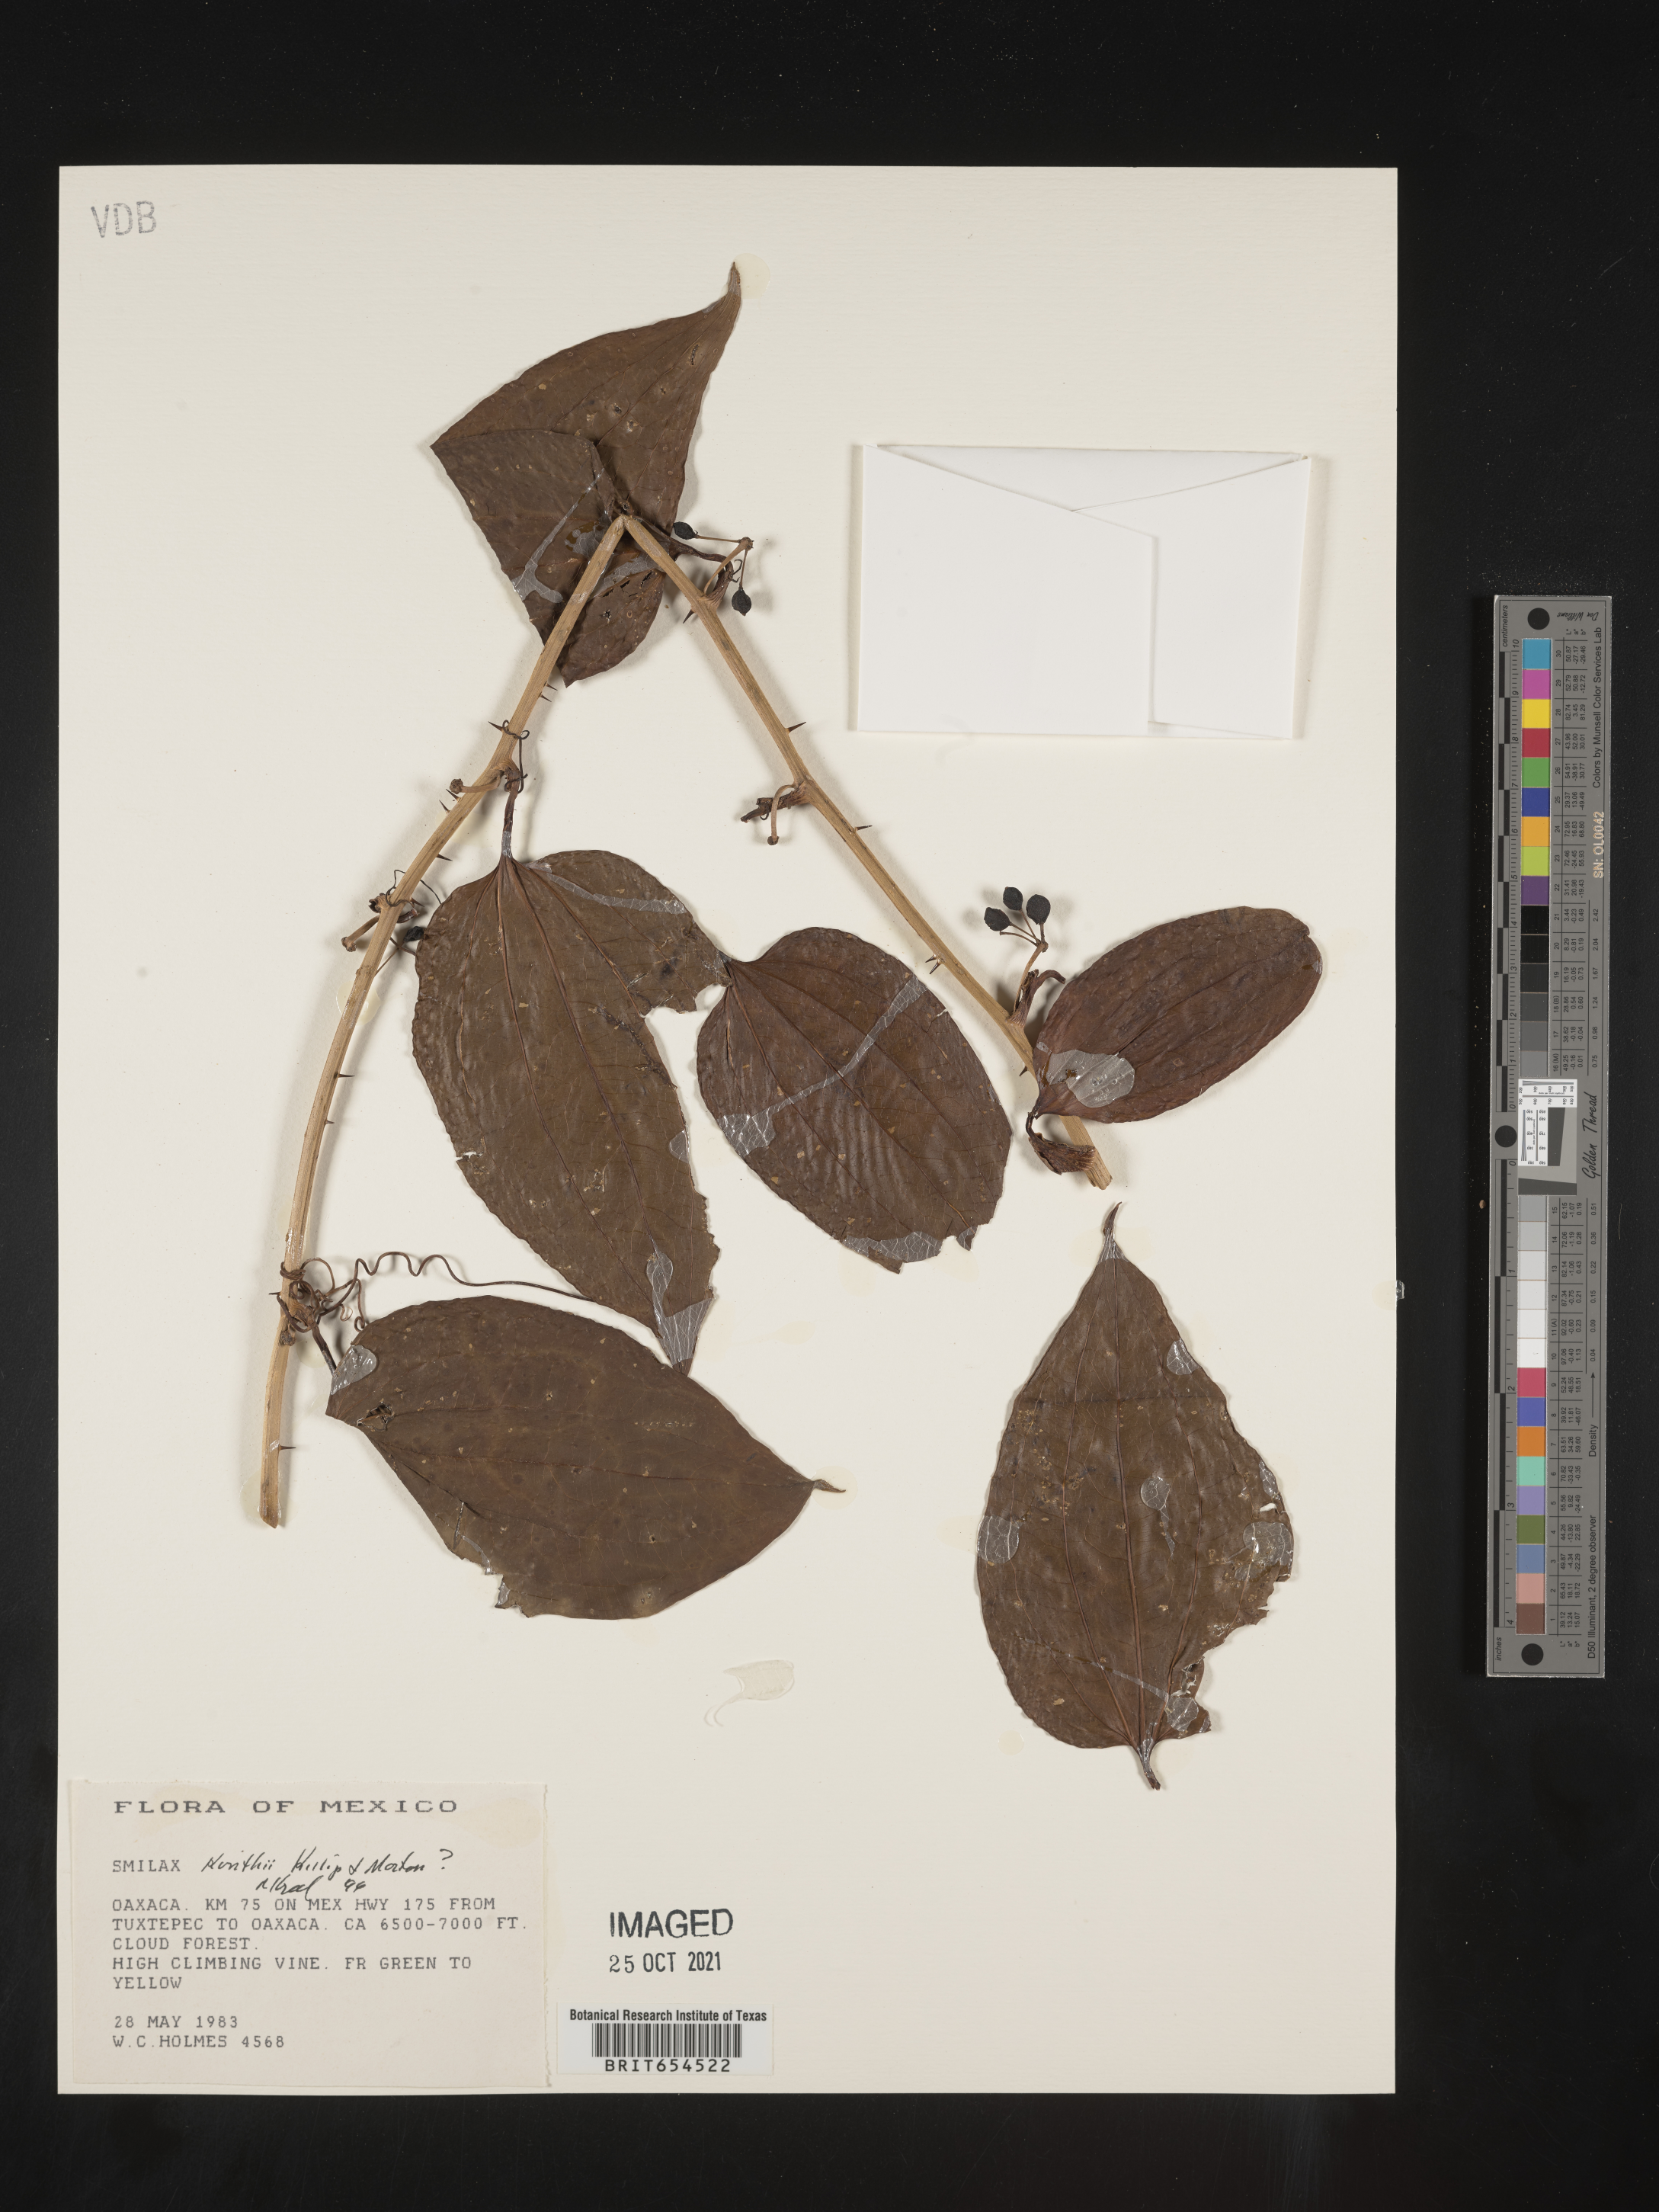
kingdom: Plantae
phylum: Tracheophyta
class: Liliopsida
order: Liliales
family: Smilacaceae
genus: Smilax
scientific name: Smilax
